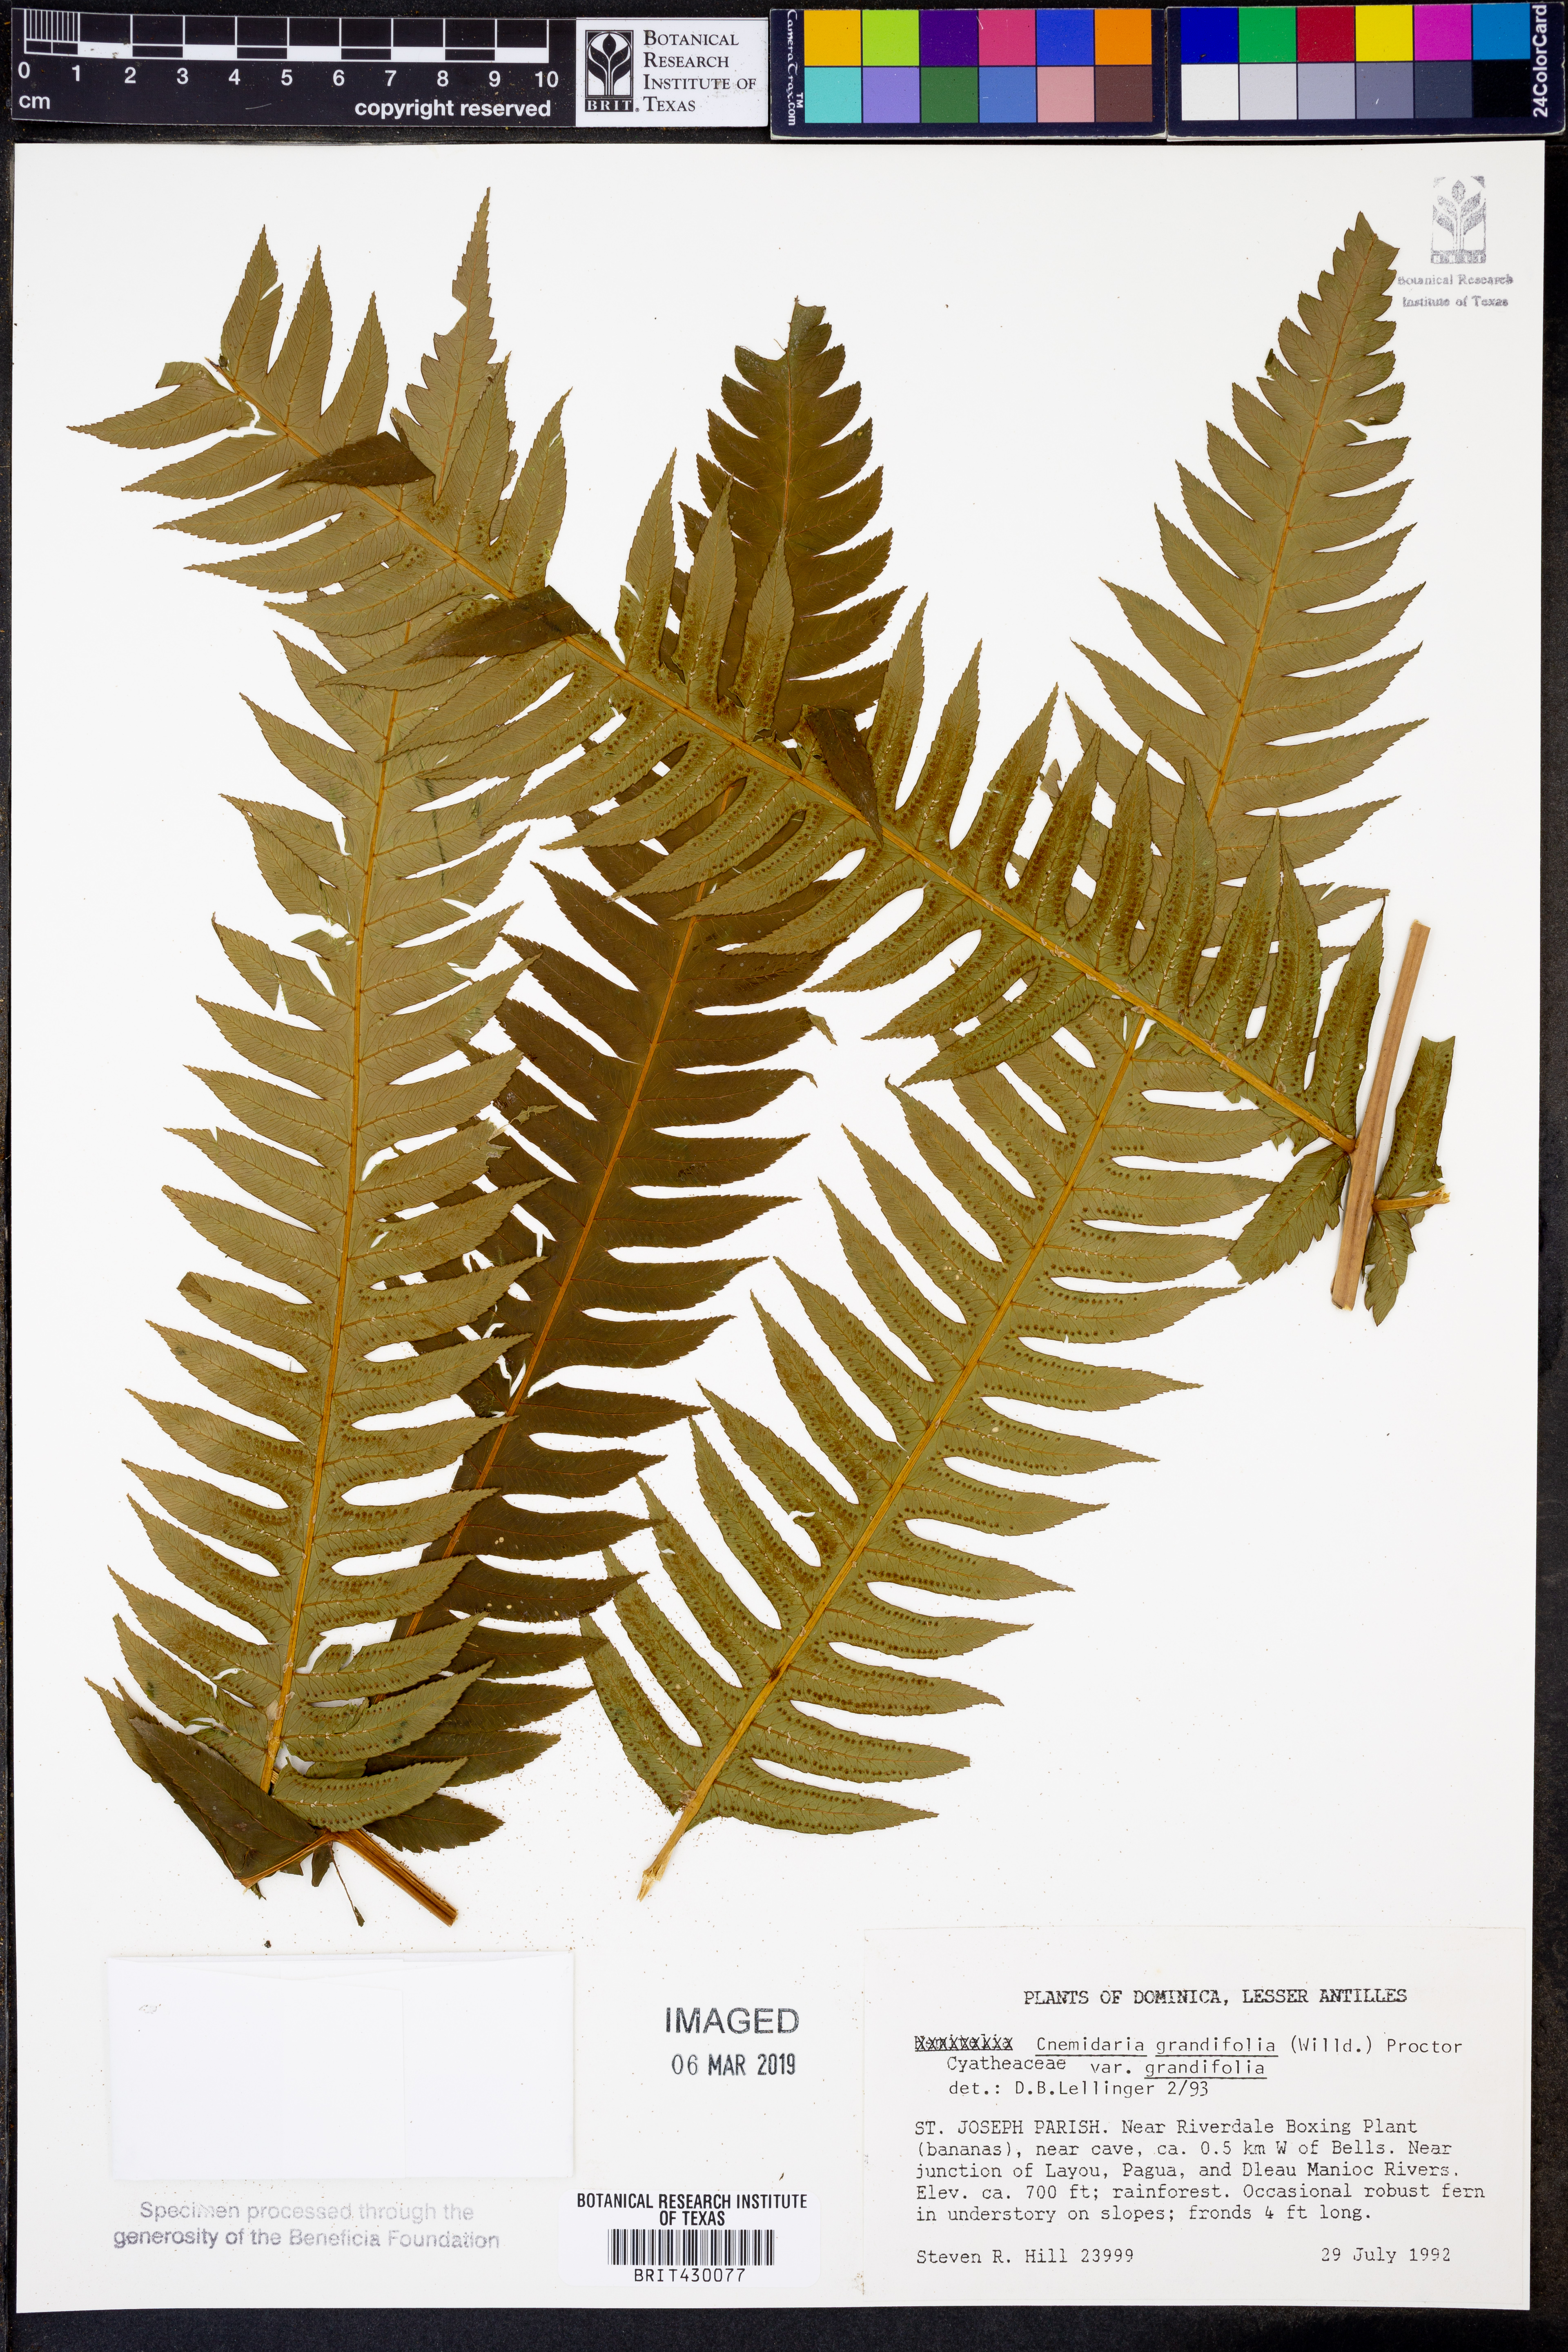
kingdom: Plantae
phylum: Tracheophyta
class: Polypodiopsida
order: Cyatheales
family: Cyatheaceae
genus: Cyathea
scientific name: Cyathea grandifolia
